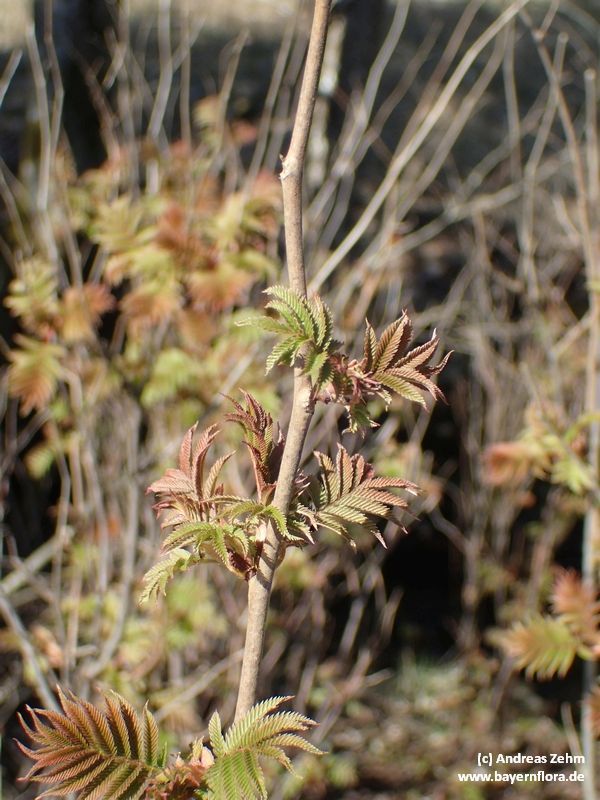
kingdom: Plantae
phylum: Tracheophyta
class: Magnoliopsida
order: Rosales
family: Rosaceae
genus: Sorbaria
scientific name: Sorbaria sorbifolia
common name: False spiraea
